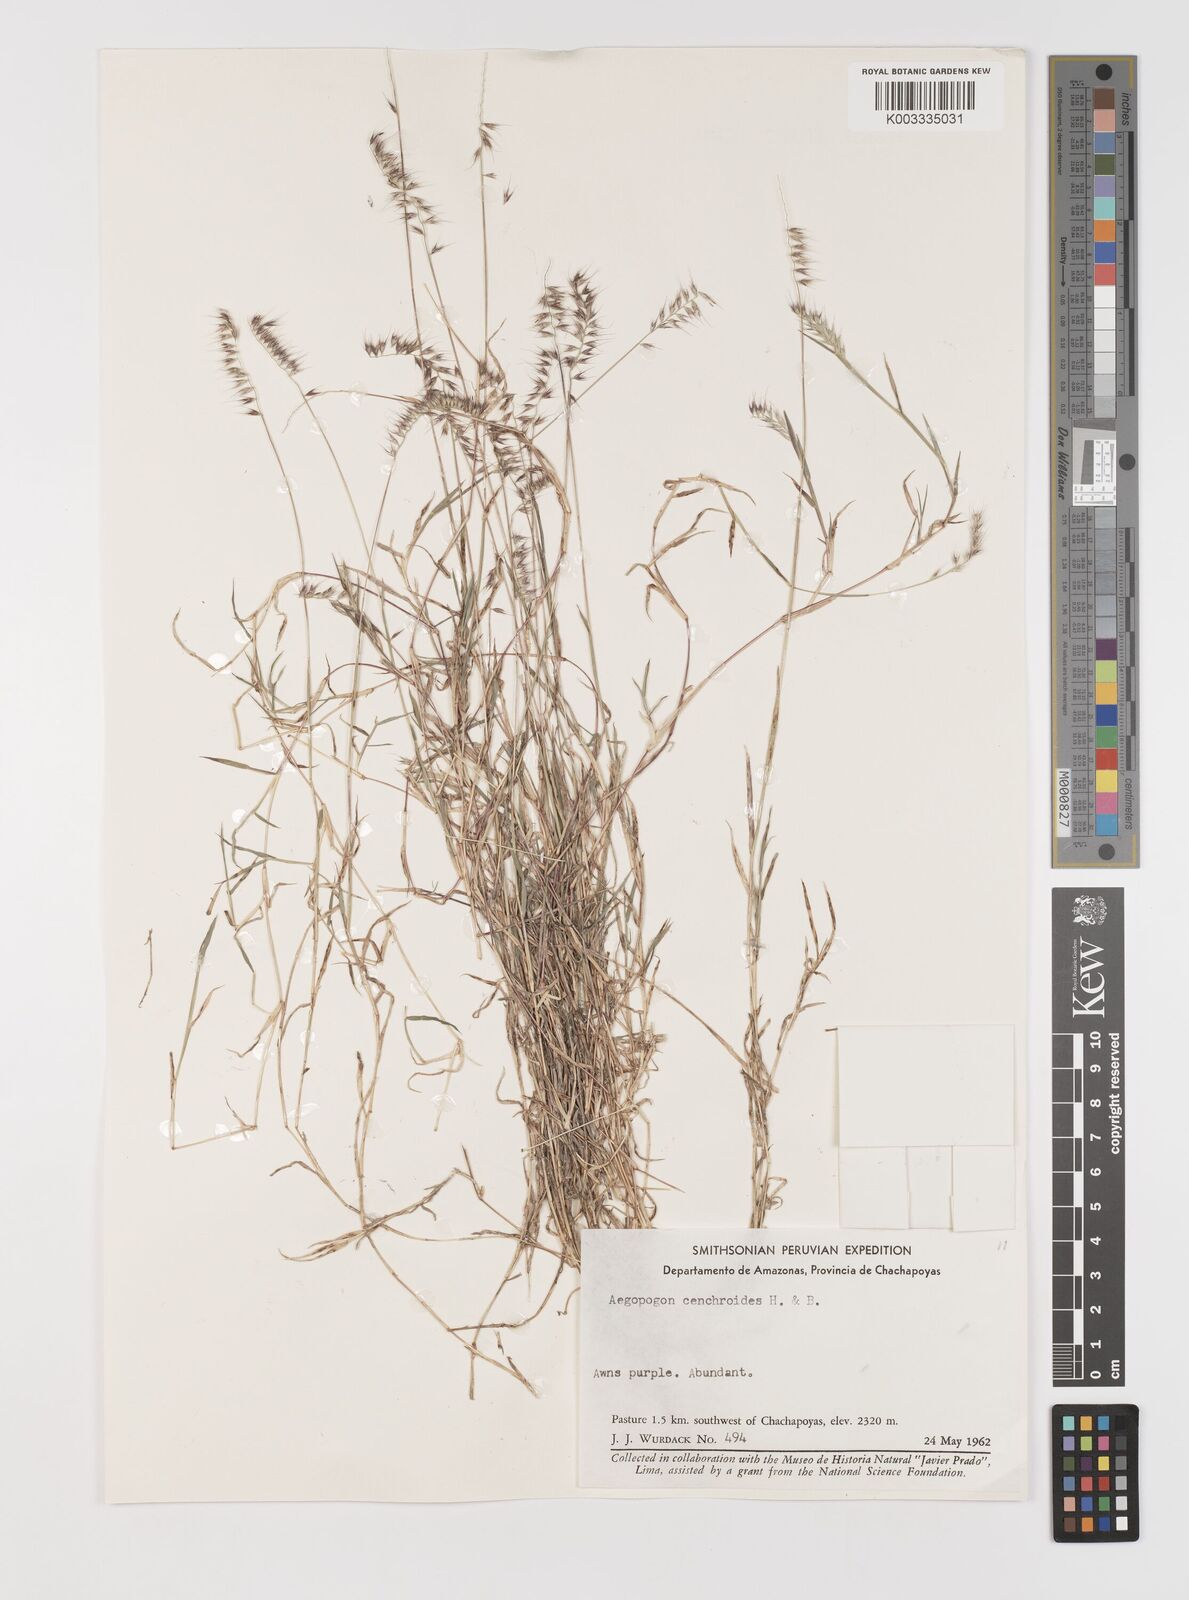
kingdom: Plantae
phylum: Tracheophyta
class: Liliopsida
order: Poales
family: Poaceae
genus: Muhlenbergia
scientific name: Muhlenbergia cenchroides
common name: Relaxgrass
